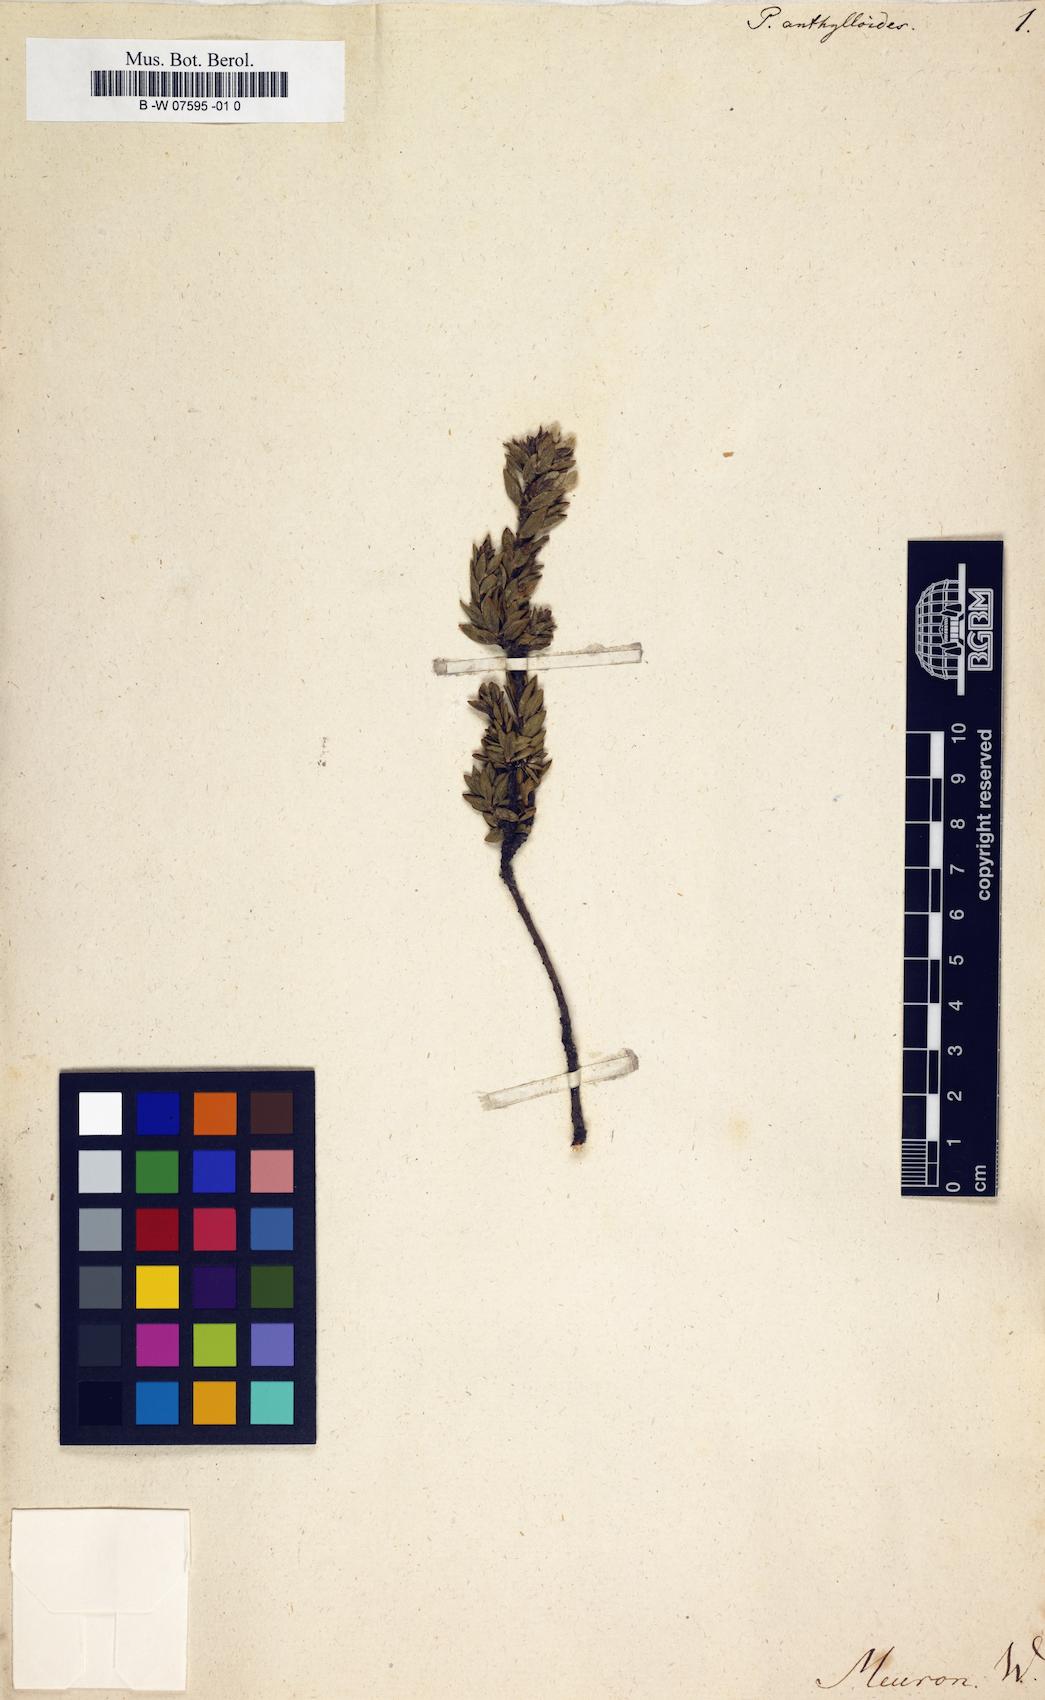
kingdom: Plantae
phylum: Tracheophyta
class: Magnoliopsida
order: Malvales
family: Thymelaeaceae
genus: Gnidia
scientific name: Gnidia anthylloides
